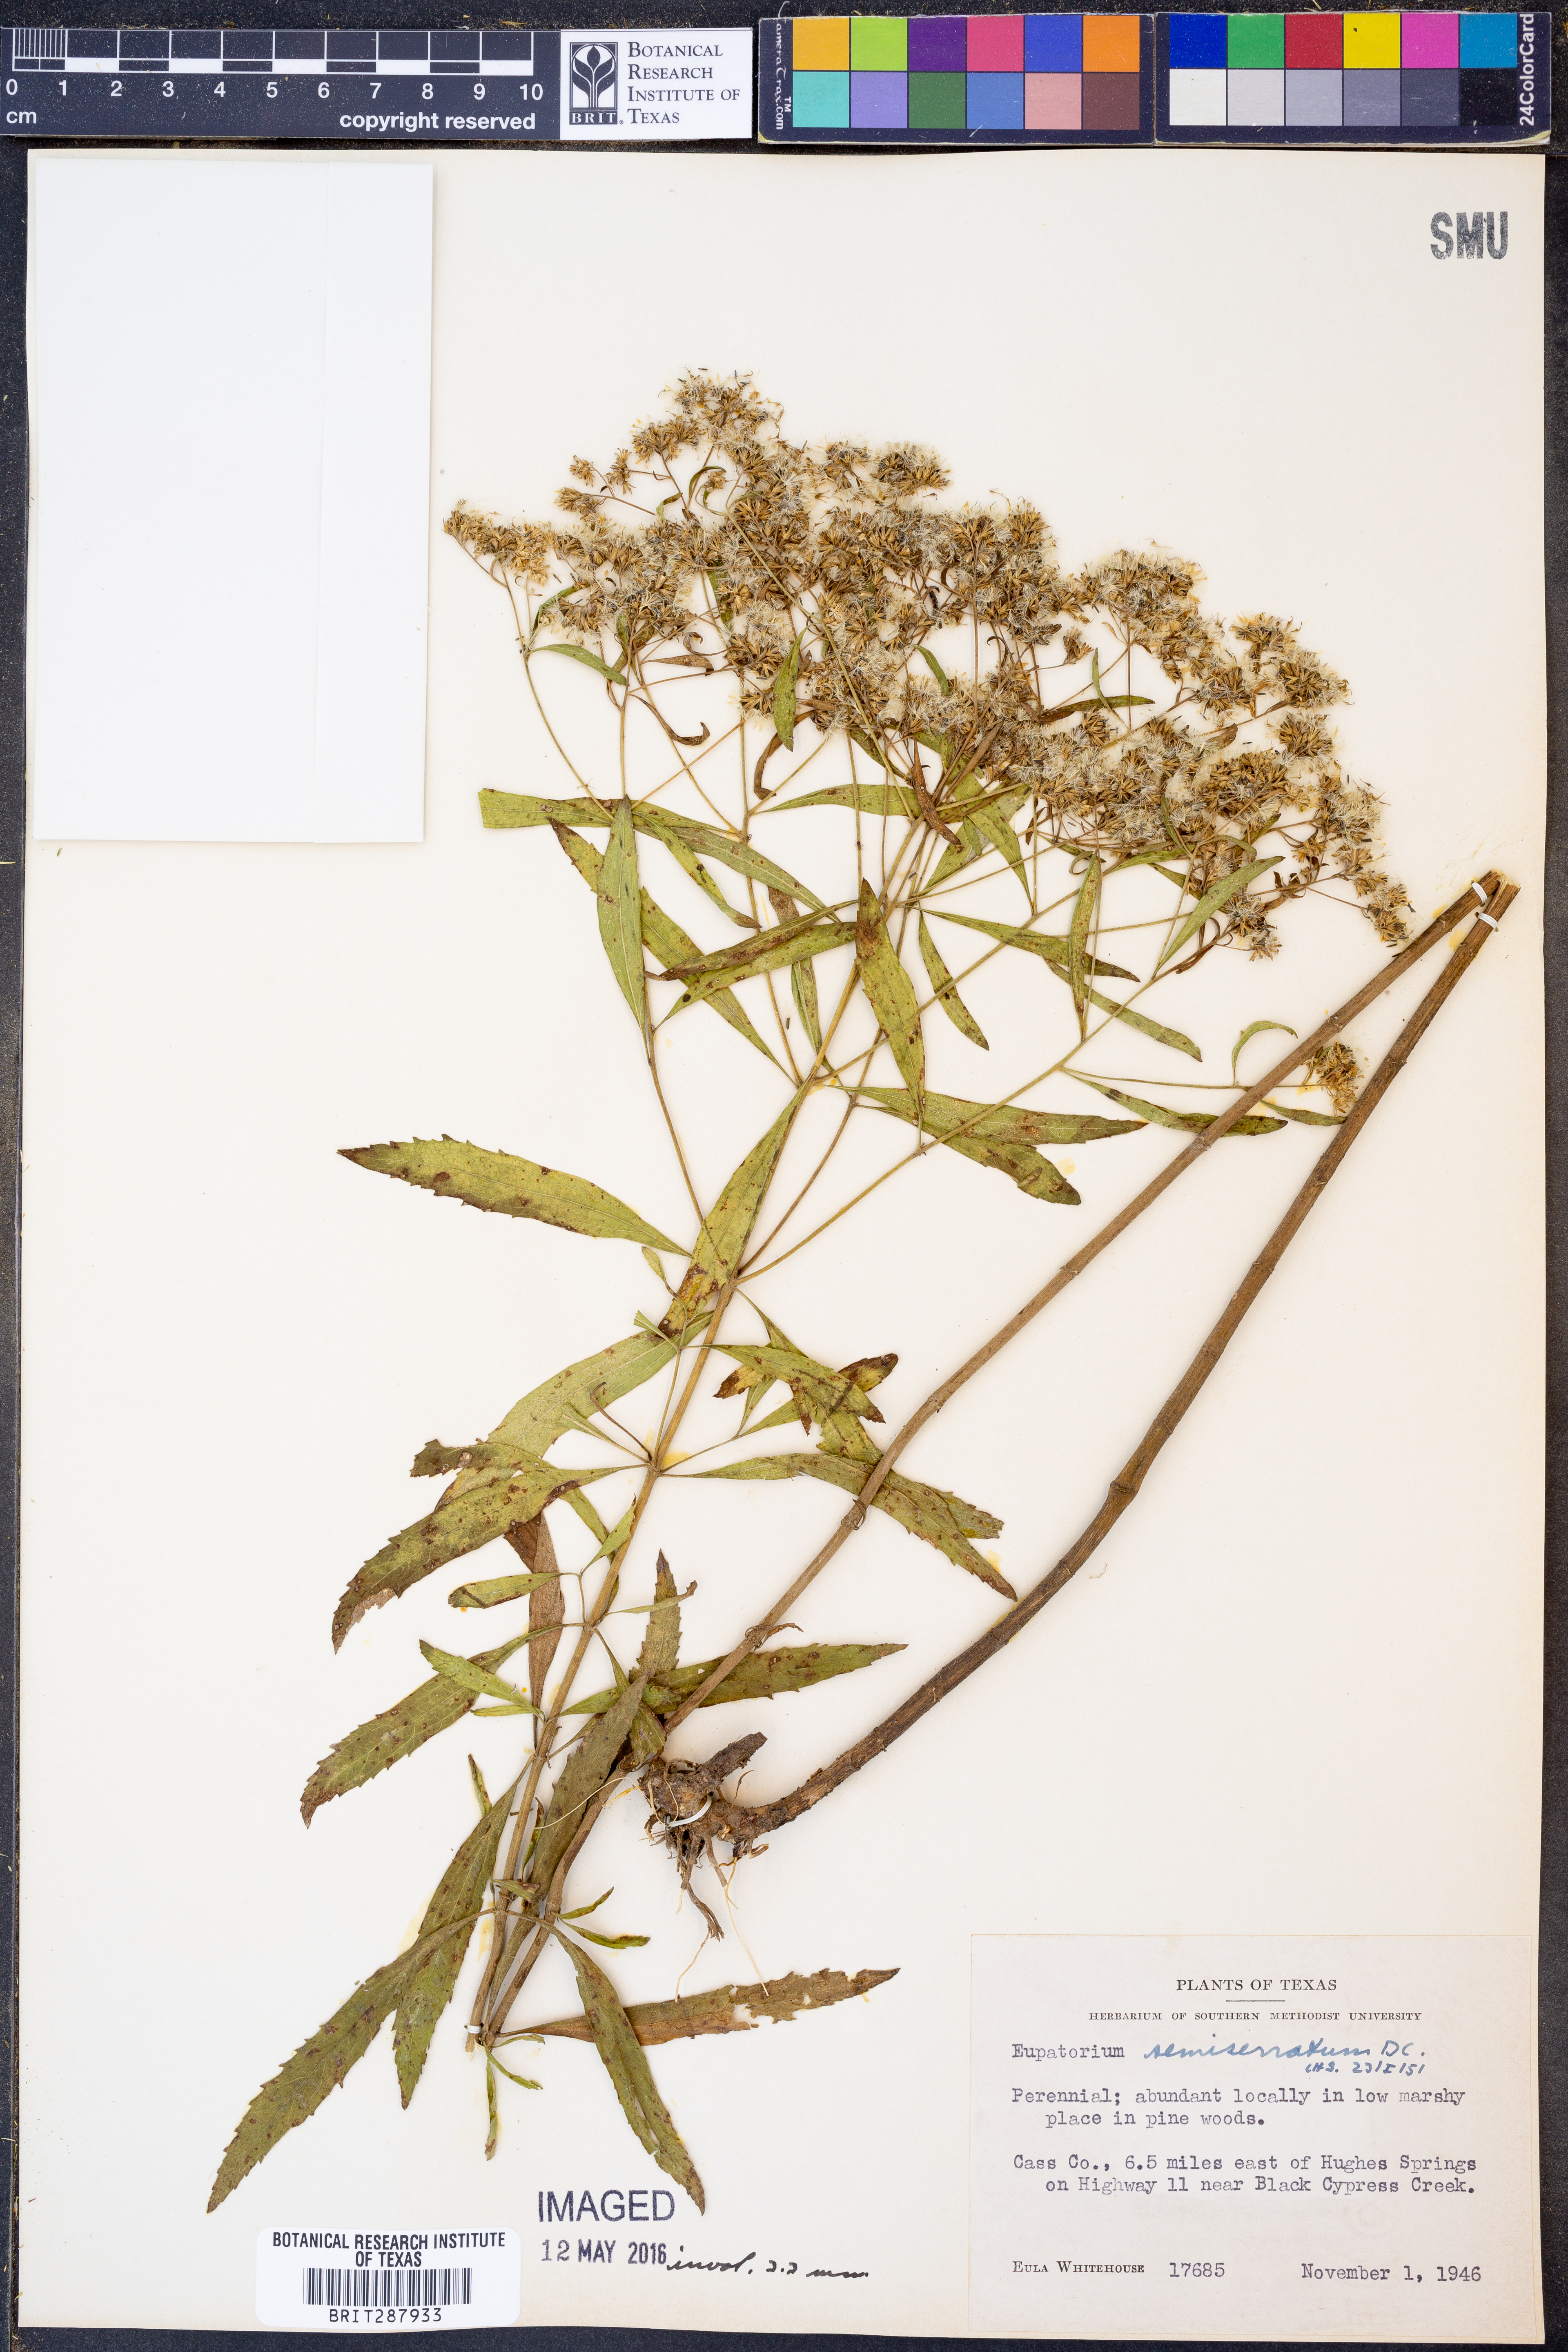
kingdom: Plantae
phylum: Tracheophyta
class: Magnoliopsida
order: Asterales
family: Asteraceae
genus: Eupatorium
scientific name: Eupatorium semiserratum
